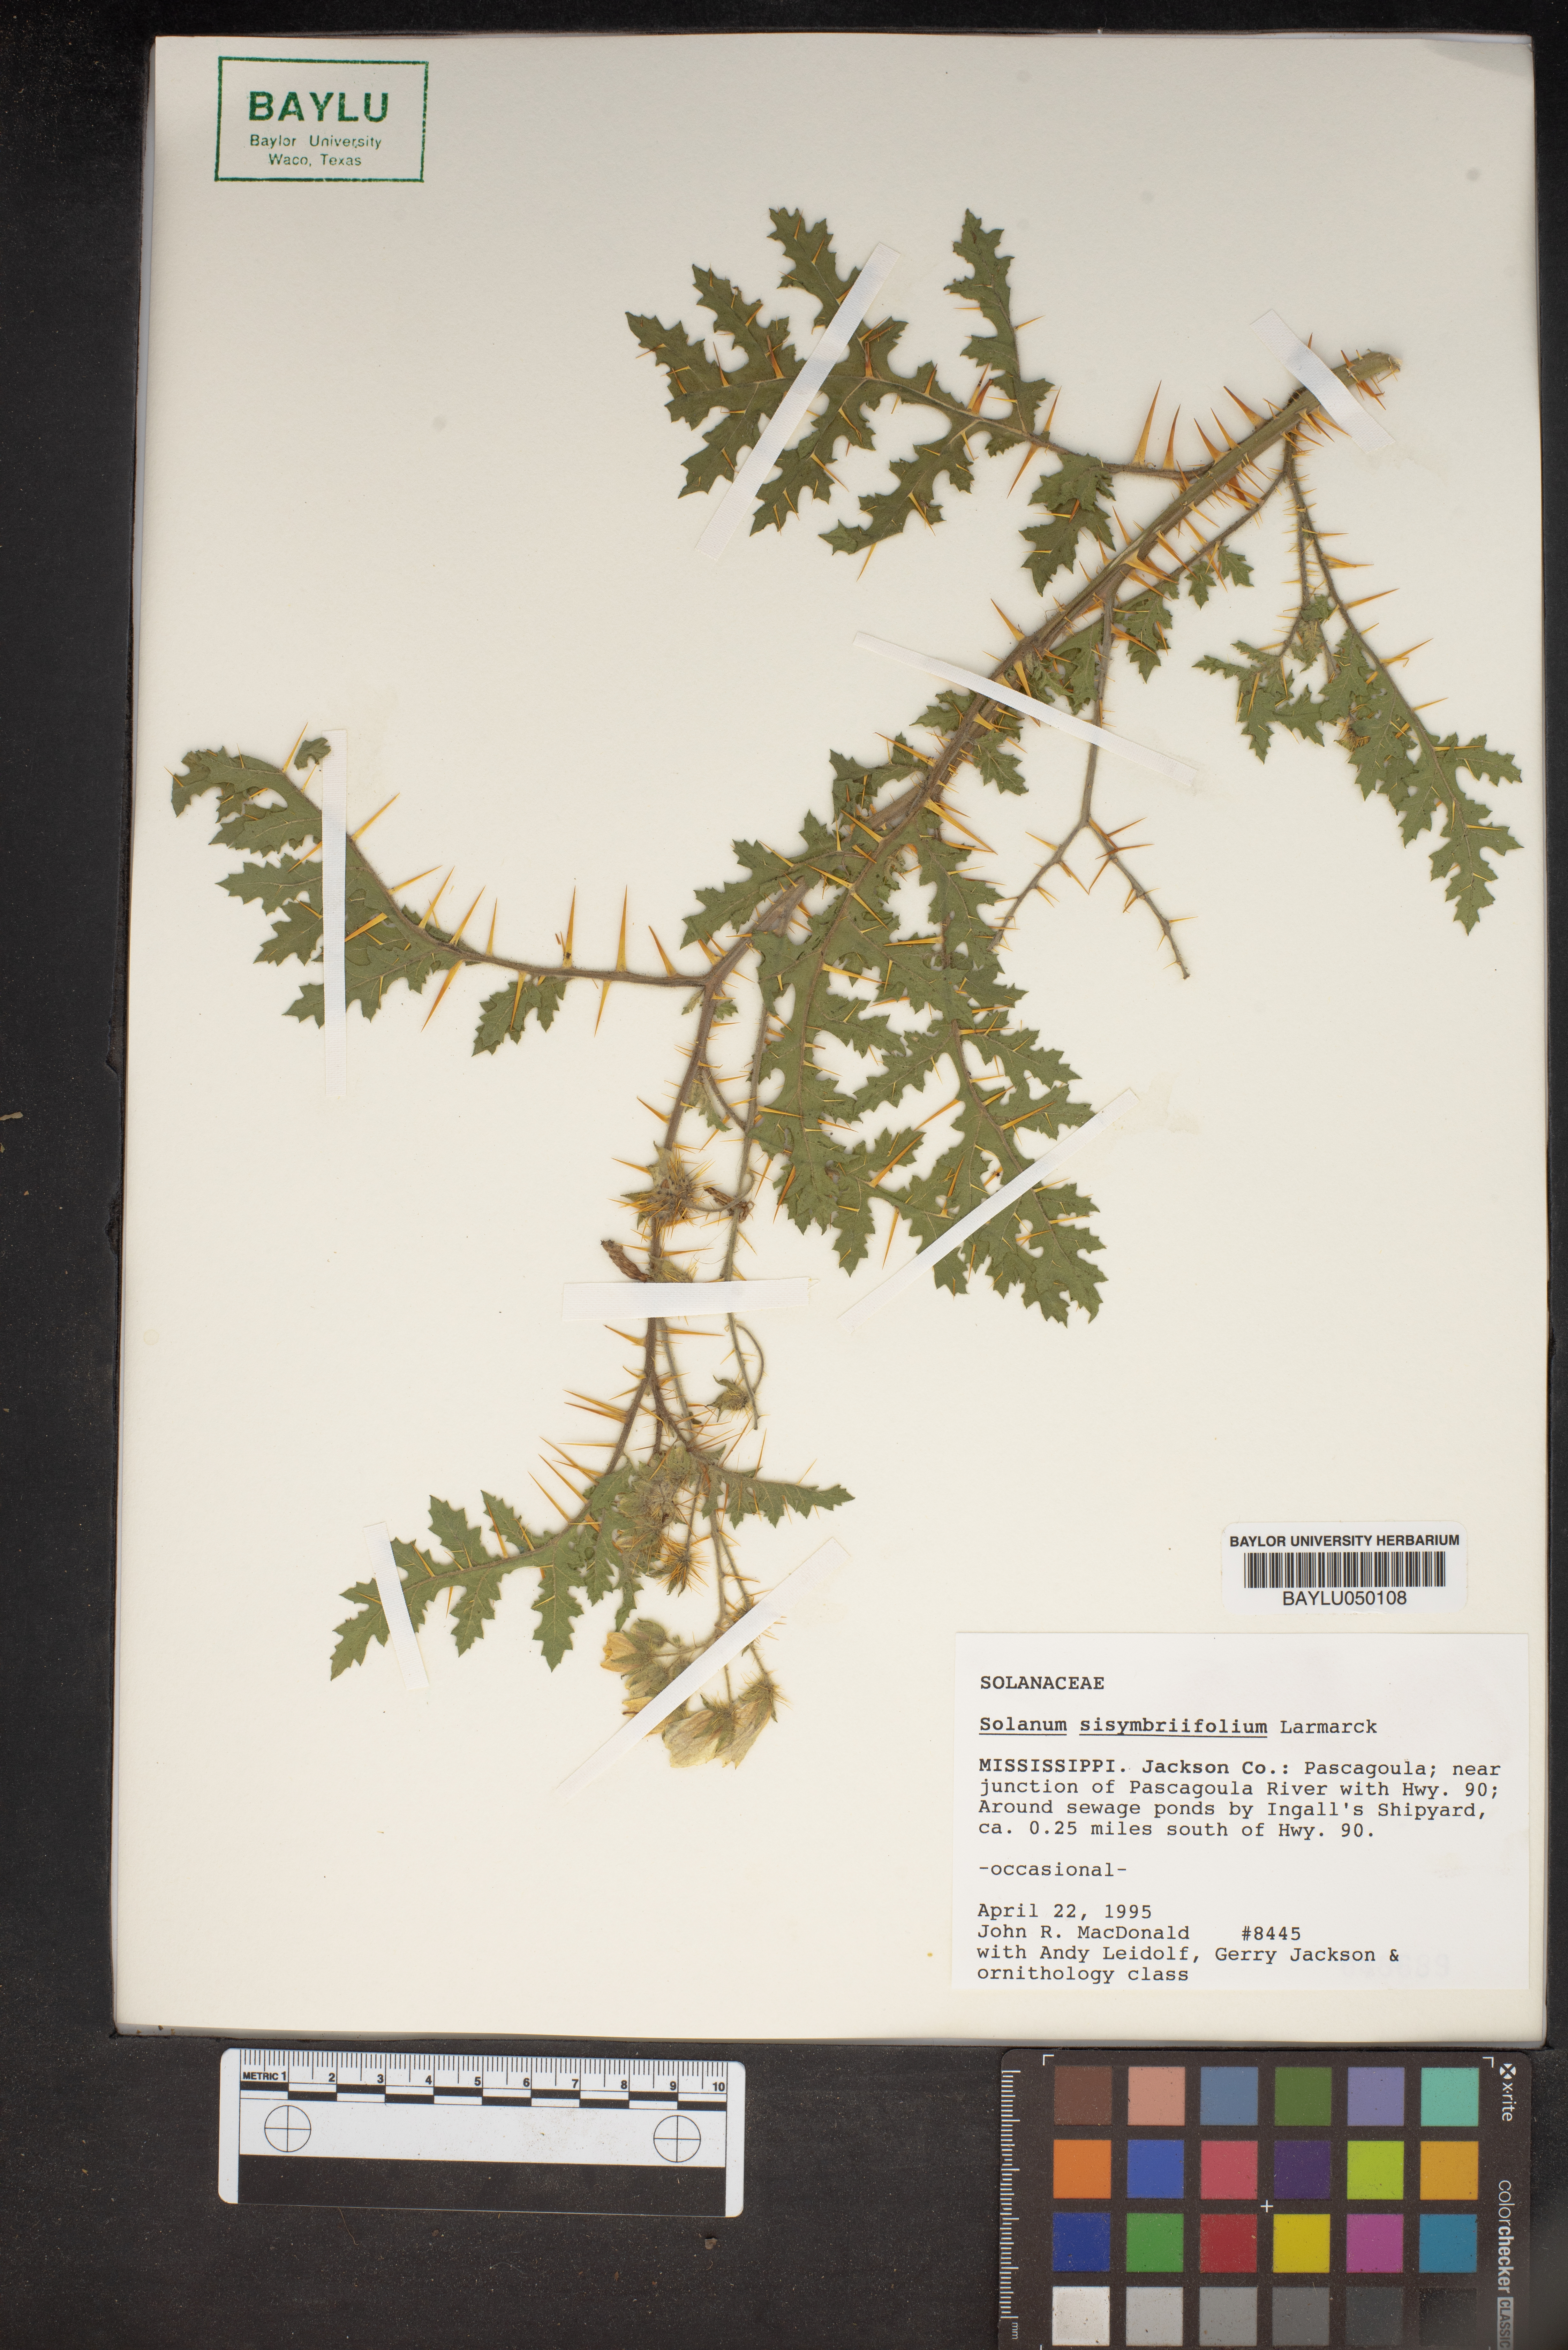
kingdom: Plantae
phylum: Tracheophyta
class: Magnoliopsida
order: Solanales
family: Solanaceae
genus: Solanum
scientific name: Solanum sisymbriifolium
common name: Red buffalo-bur
